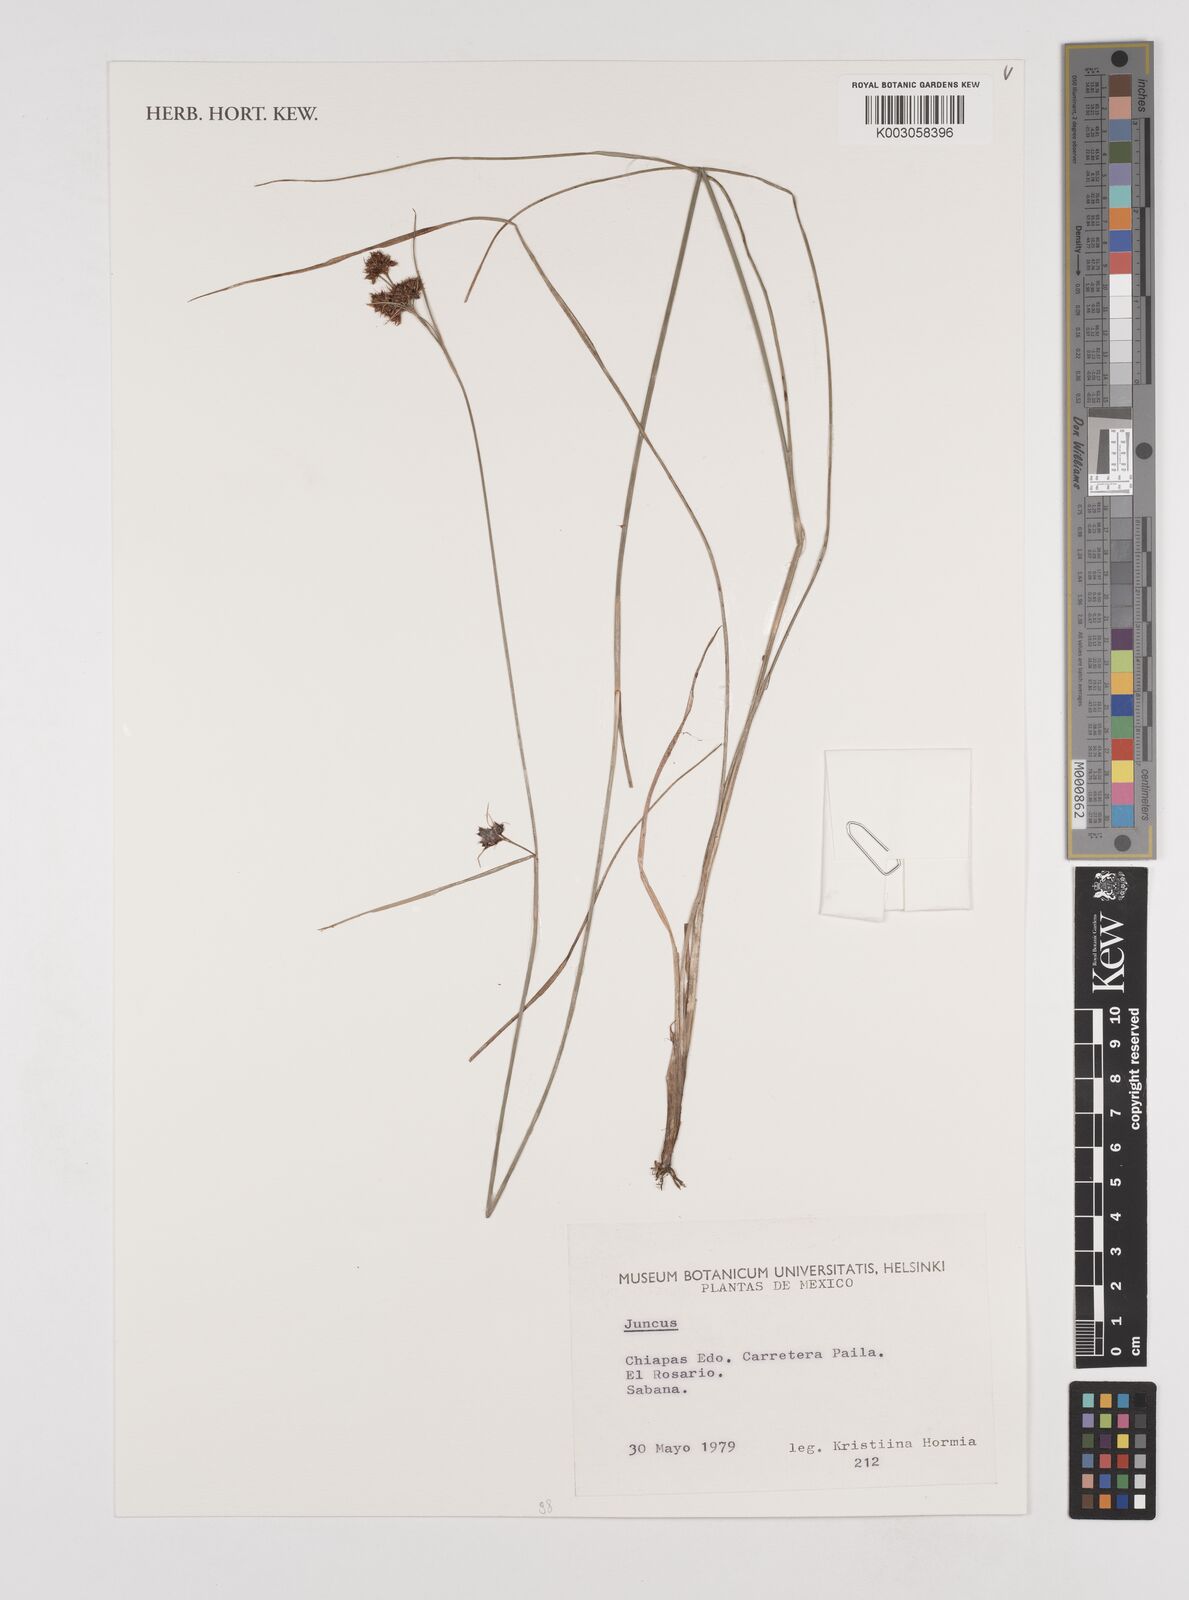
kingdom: Plantae
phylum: Tracheophyta
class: Liliopsida
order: Poales
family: Juncaceae
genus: Juncus
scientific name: Juncus
